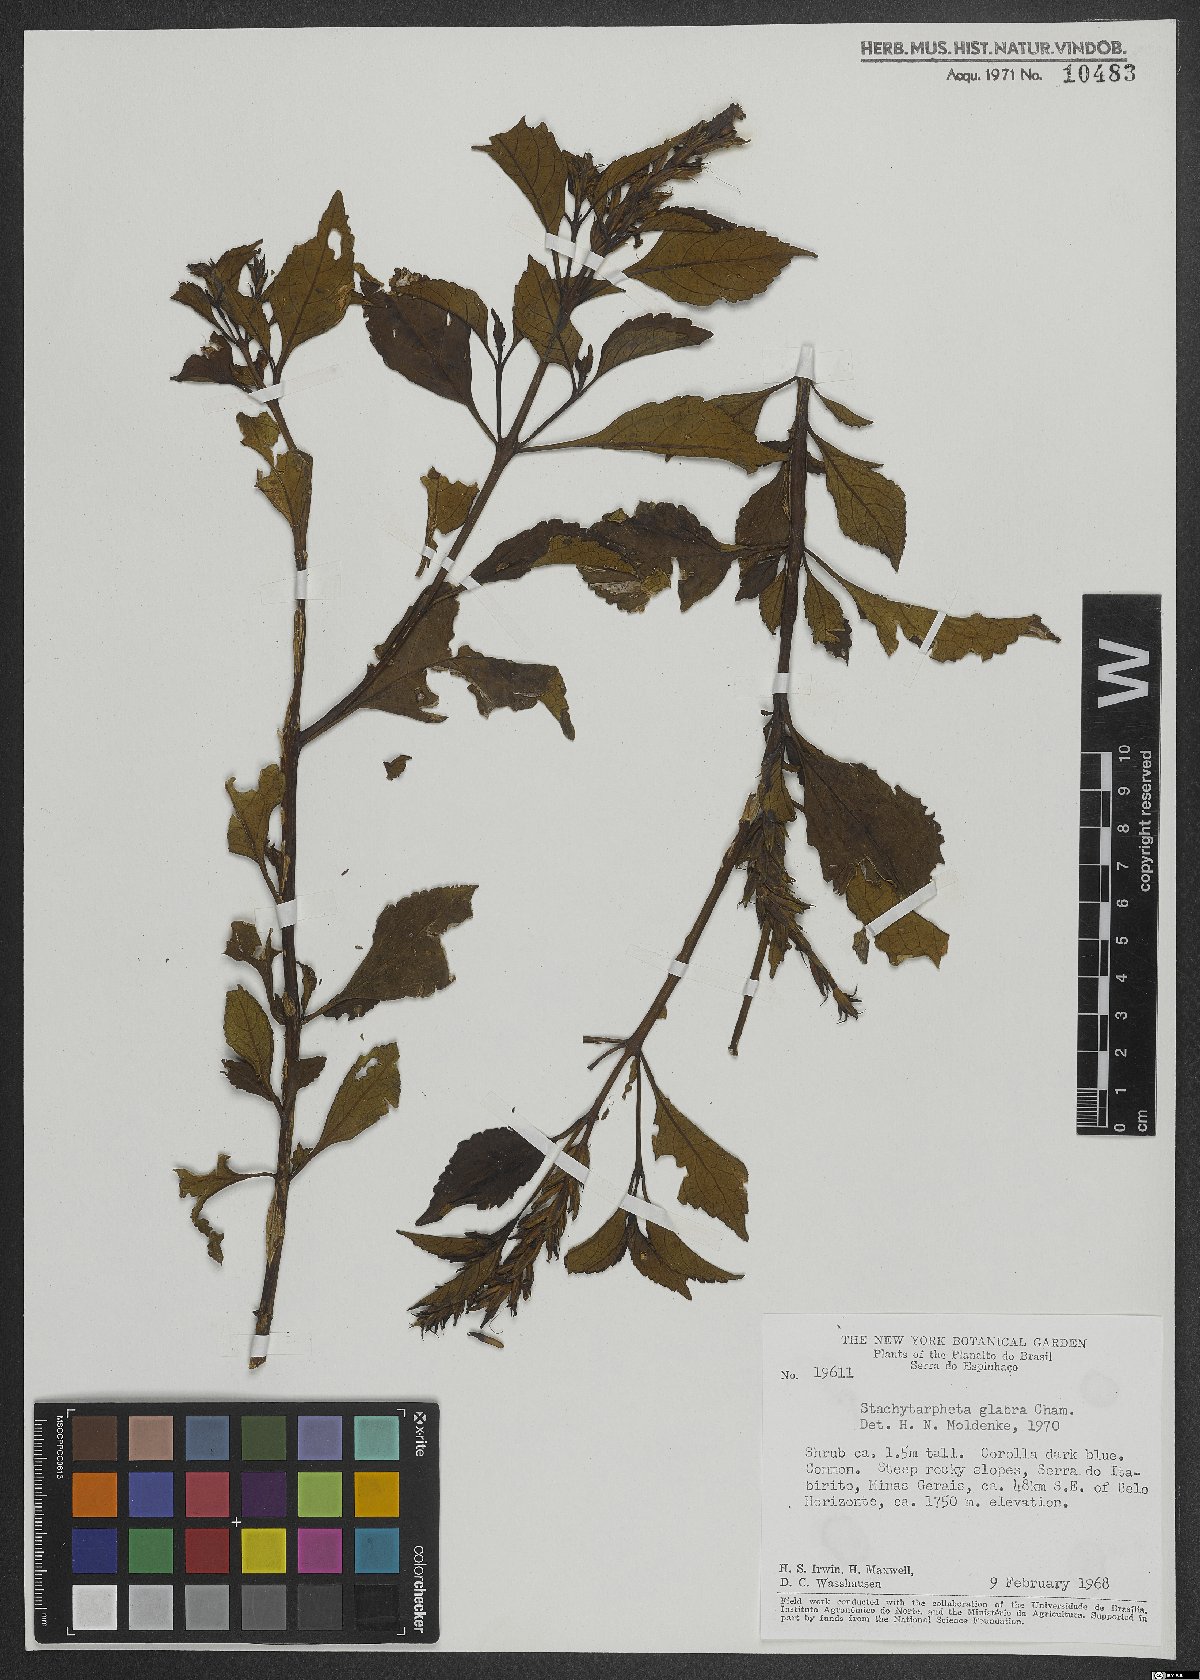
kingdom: Plantae
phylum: Tracheophyta
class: Magnoliopsida
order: Lamiales
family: Verbenaceae
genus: Stachytarpheta
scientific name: Stachytarpheta glabra
